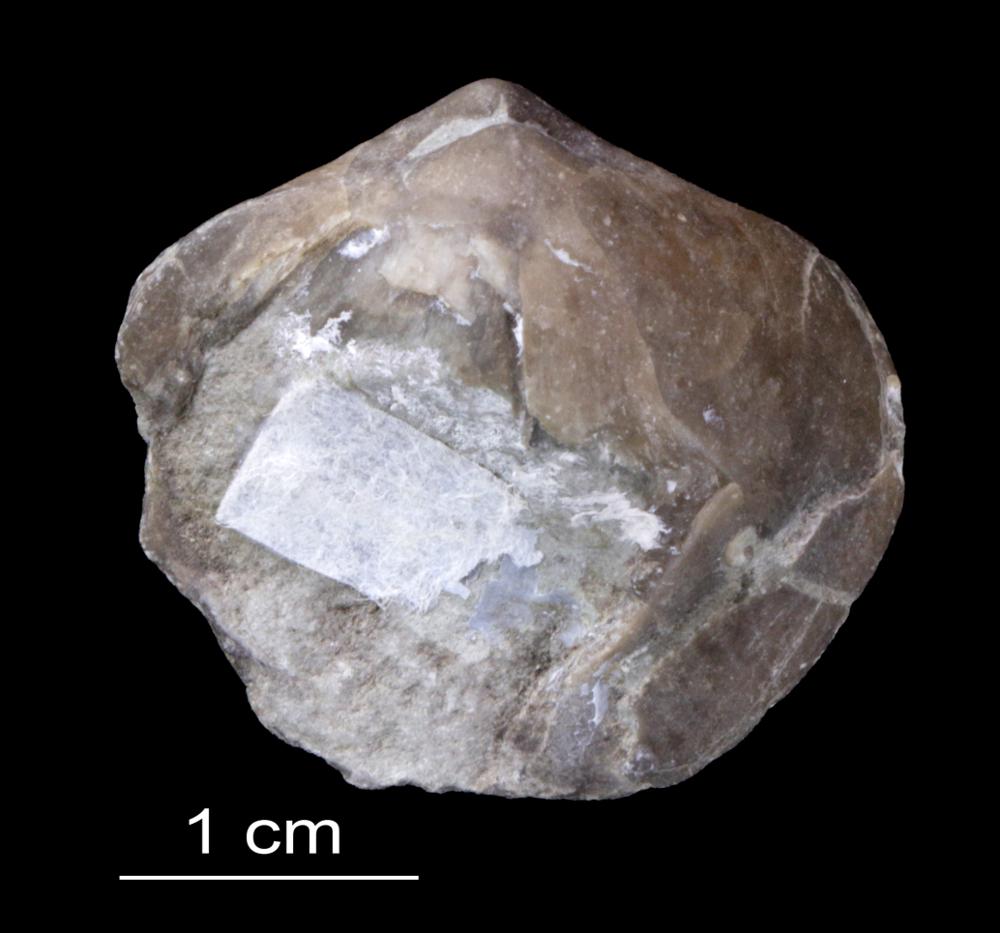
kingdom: Animalia
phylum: Brachiopoda
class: Rhynchonellata
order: Terebratulida
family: Sellithyrididae
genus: Moutonithyris
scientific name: Moutonithyris Terebratula obtusa
